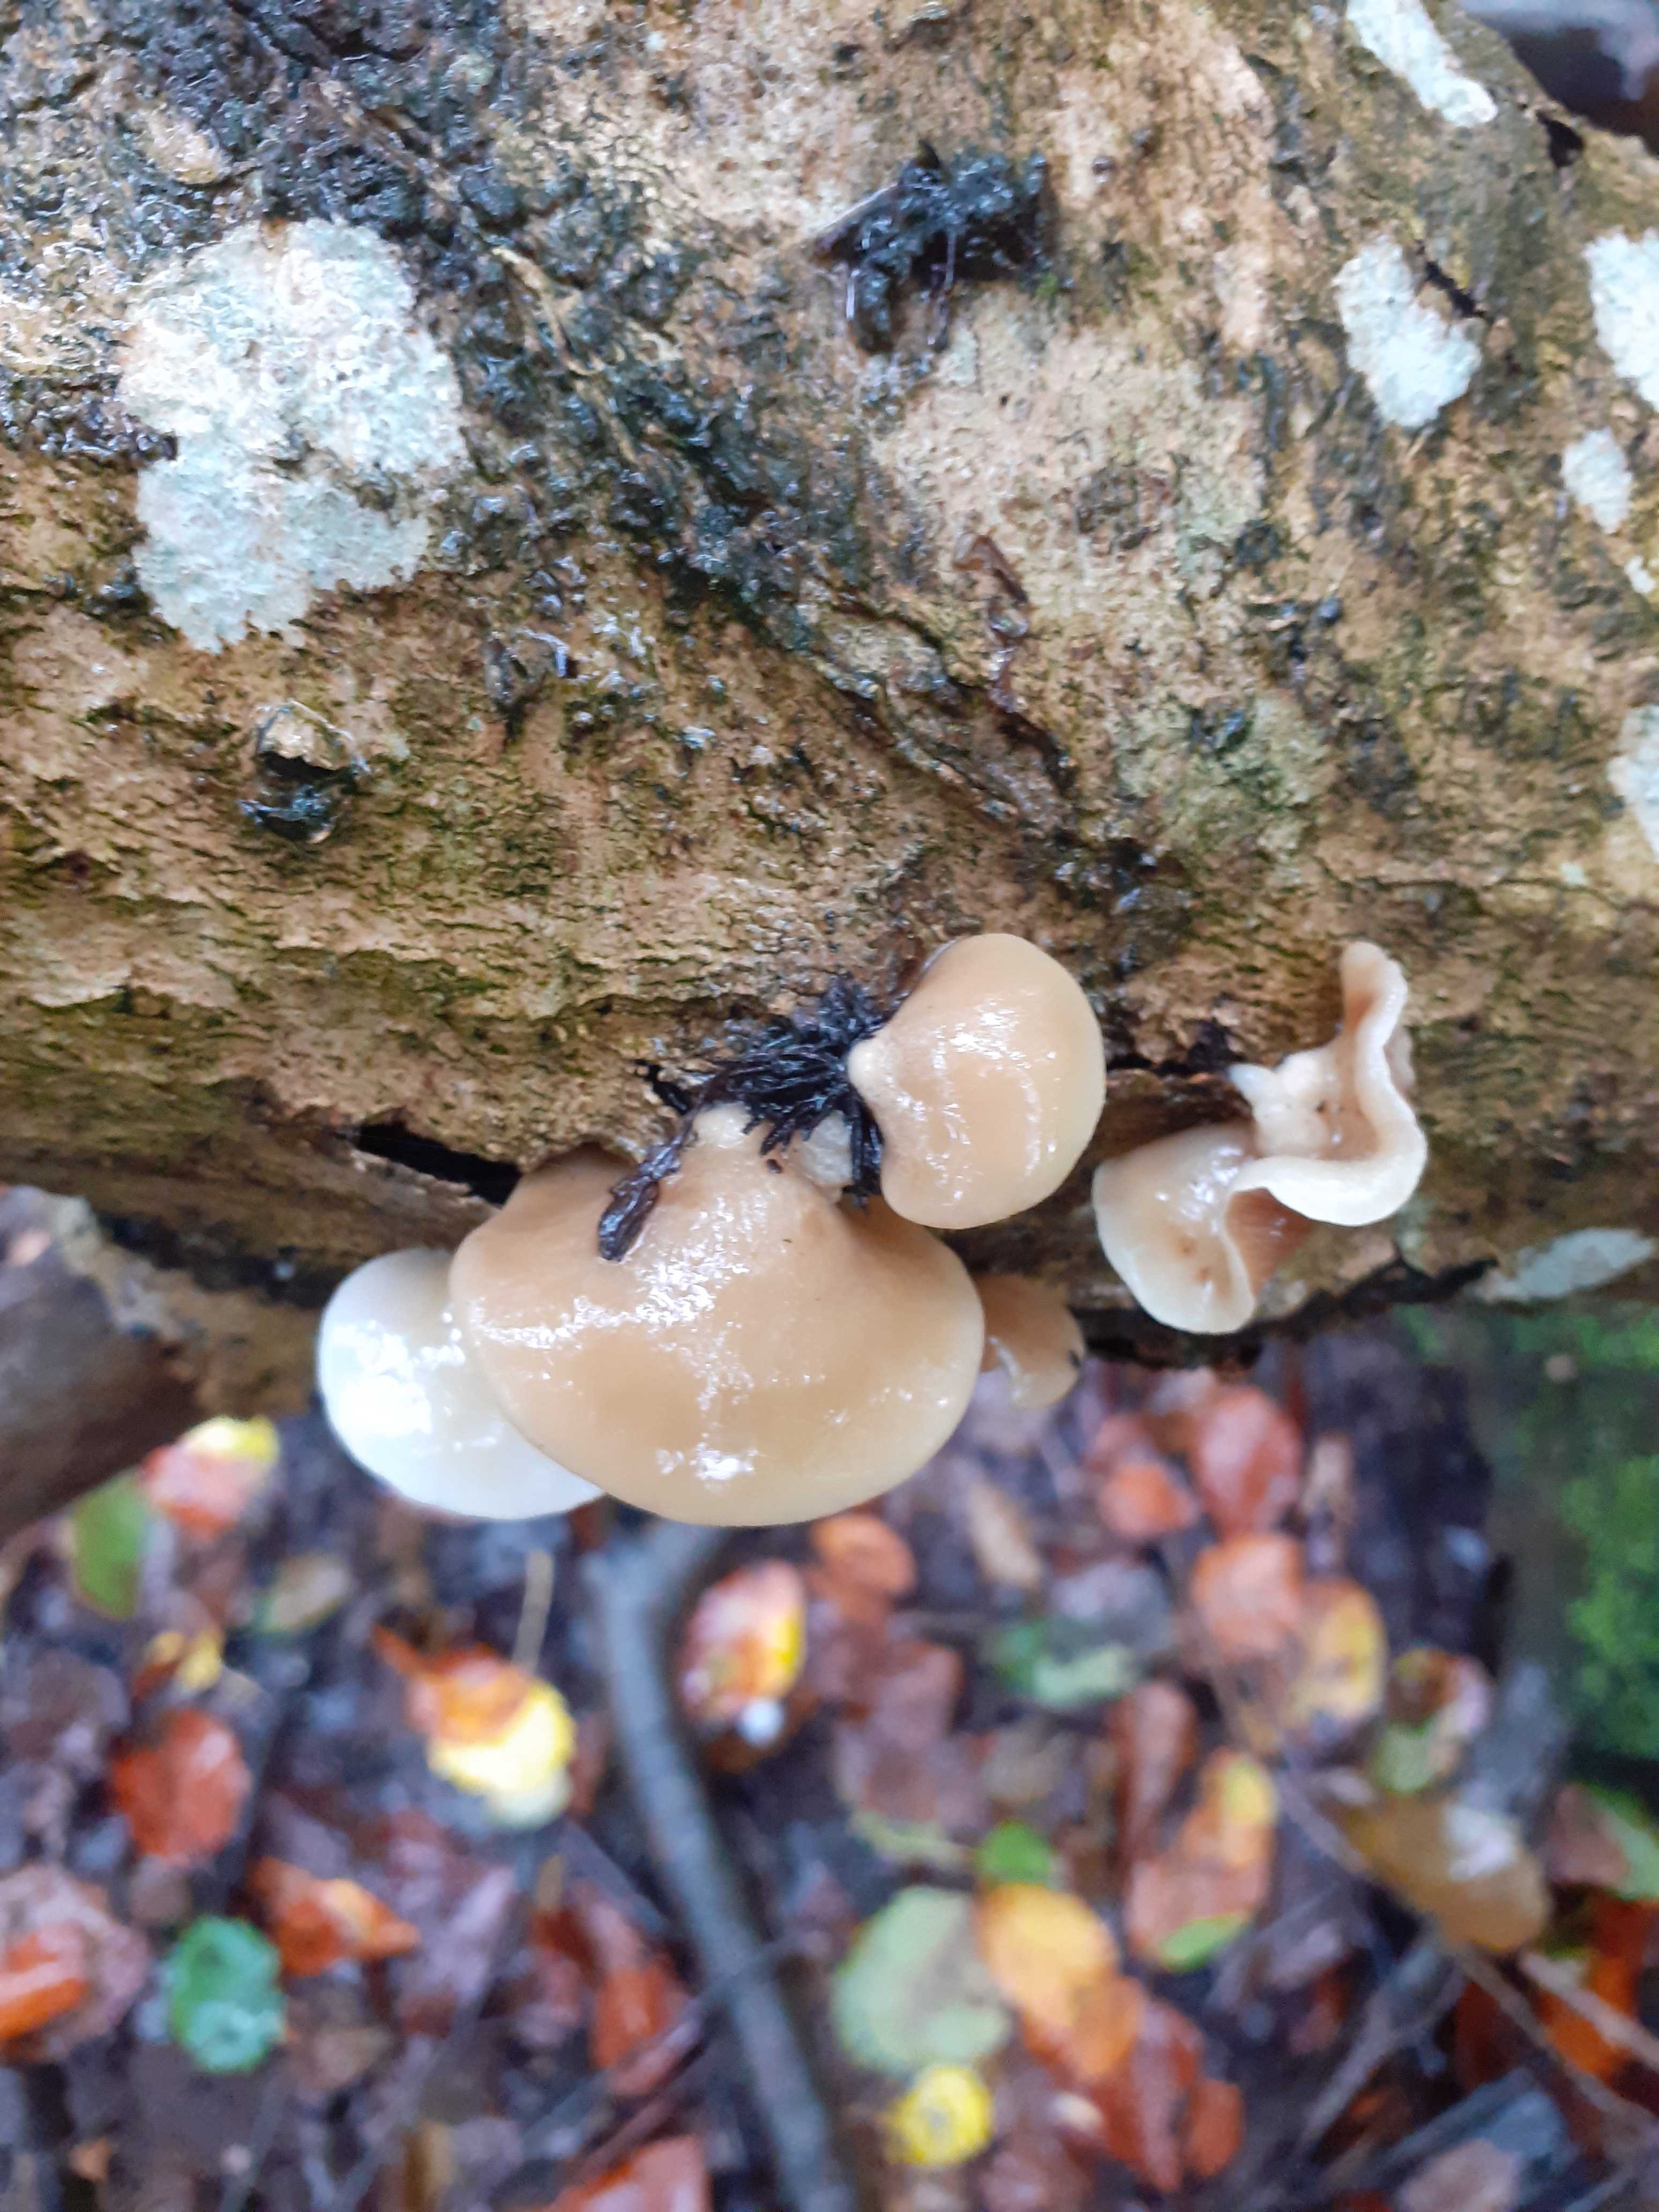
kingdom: Fungi
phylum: Basidiomycota
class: Agaricomycetes
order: Agaricales
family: Crepidotaceae
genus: Crepidotus
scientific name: Crepidotus mollis
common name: blød muslingesvamp
